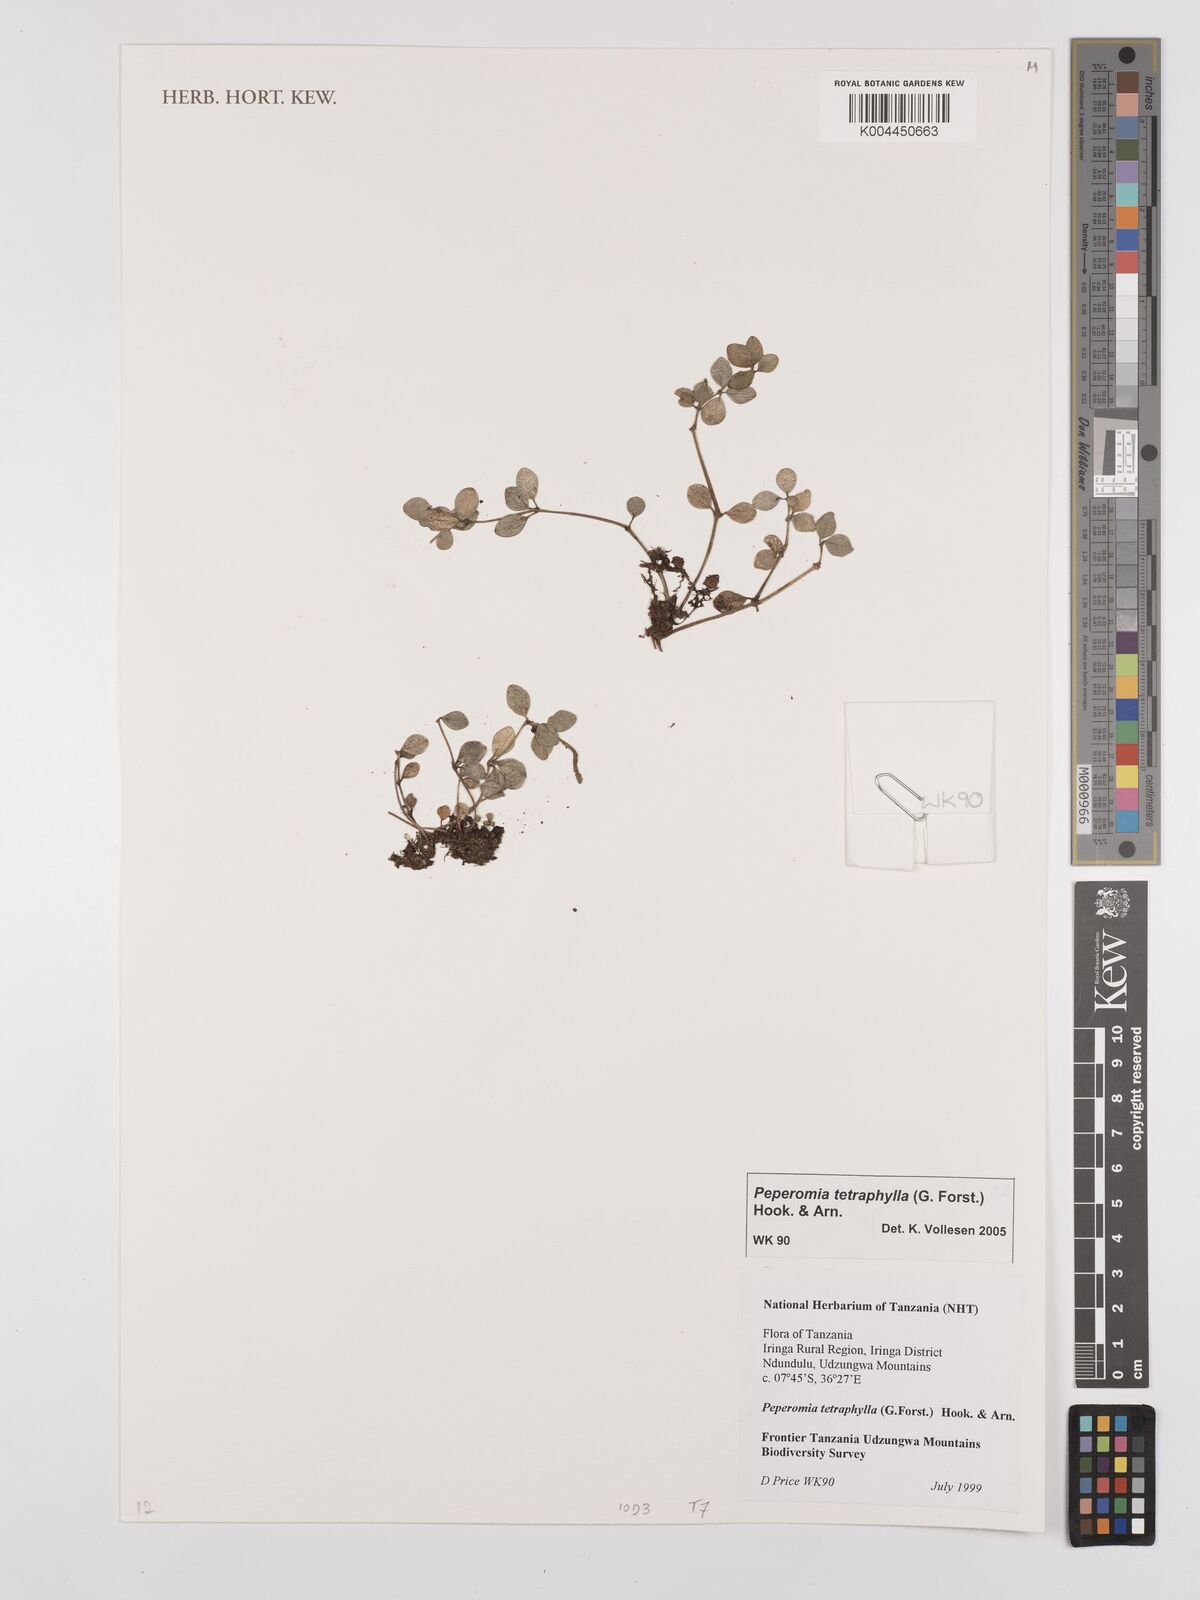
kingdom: Plantae
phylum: Tracheophyta
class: Magnoliopsida
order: Piperales
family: Piperaceae
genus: Peperomia
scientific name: Peperomia tetraphylla
